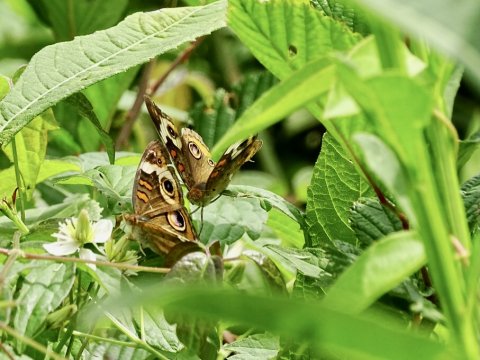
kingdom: Animalia
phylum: Arthropoda
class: Insecta
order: Lepidoptera
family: Nymphalidae
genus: Junonia
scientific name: Junonia coenia
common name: Common Buckeye
